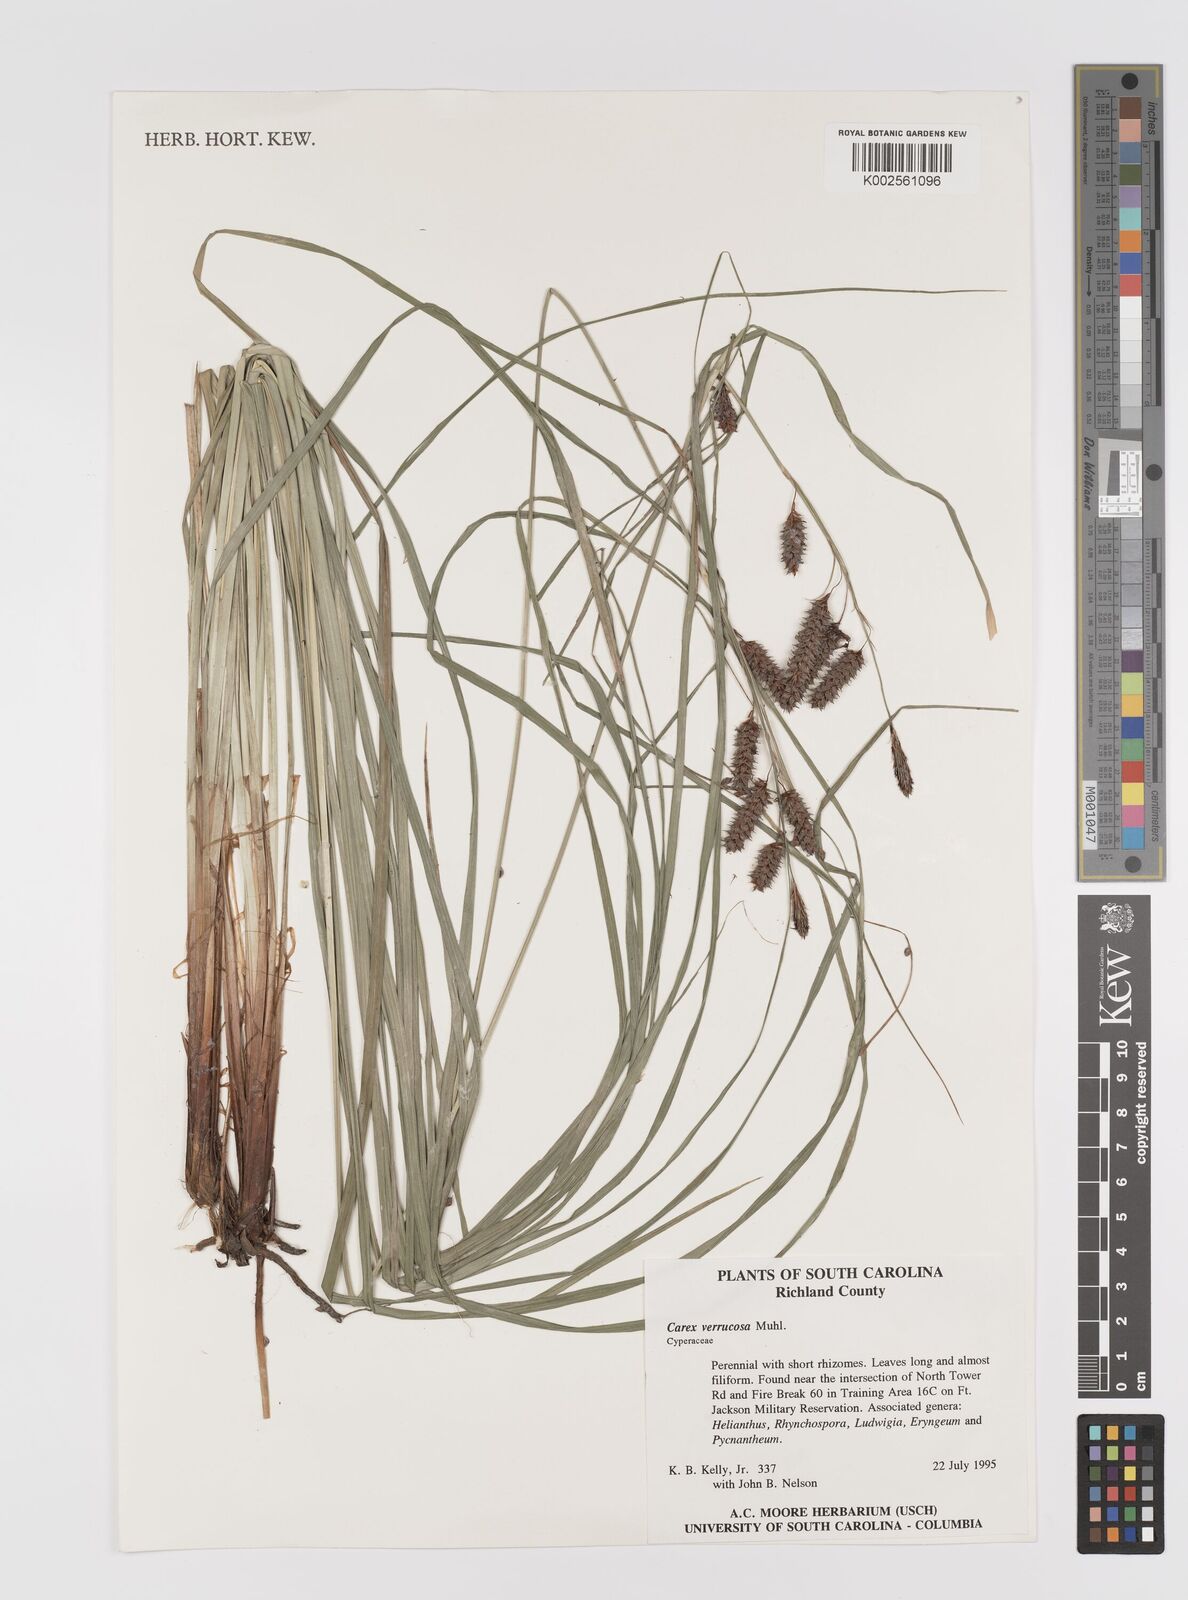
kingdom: Plantae
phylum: Tracheophyta
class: Liliopsida
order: Poales
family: Cyperaceae
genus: Carex
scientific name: Carex verrucosa
